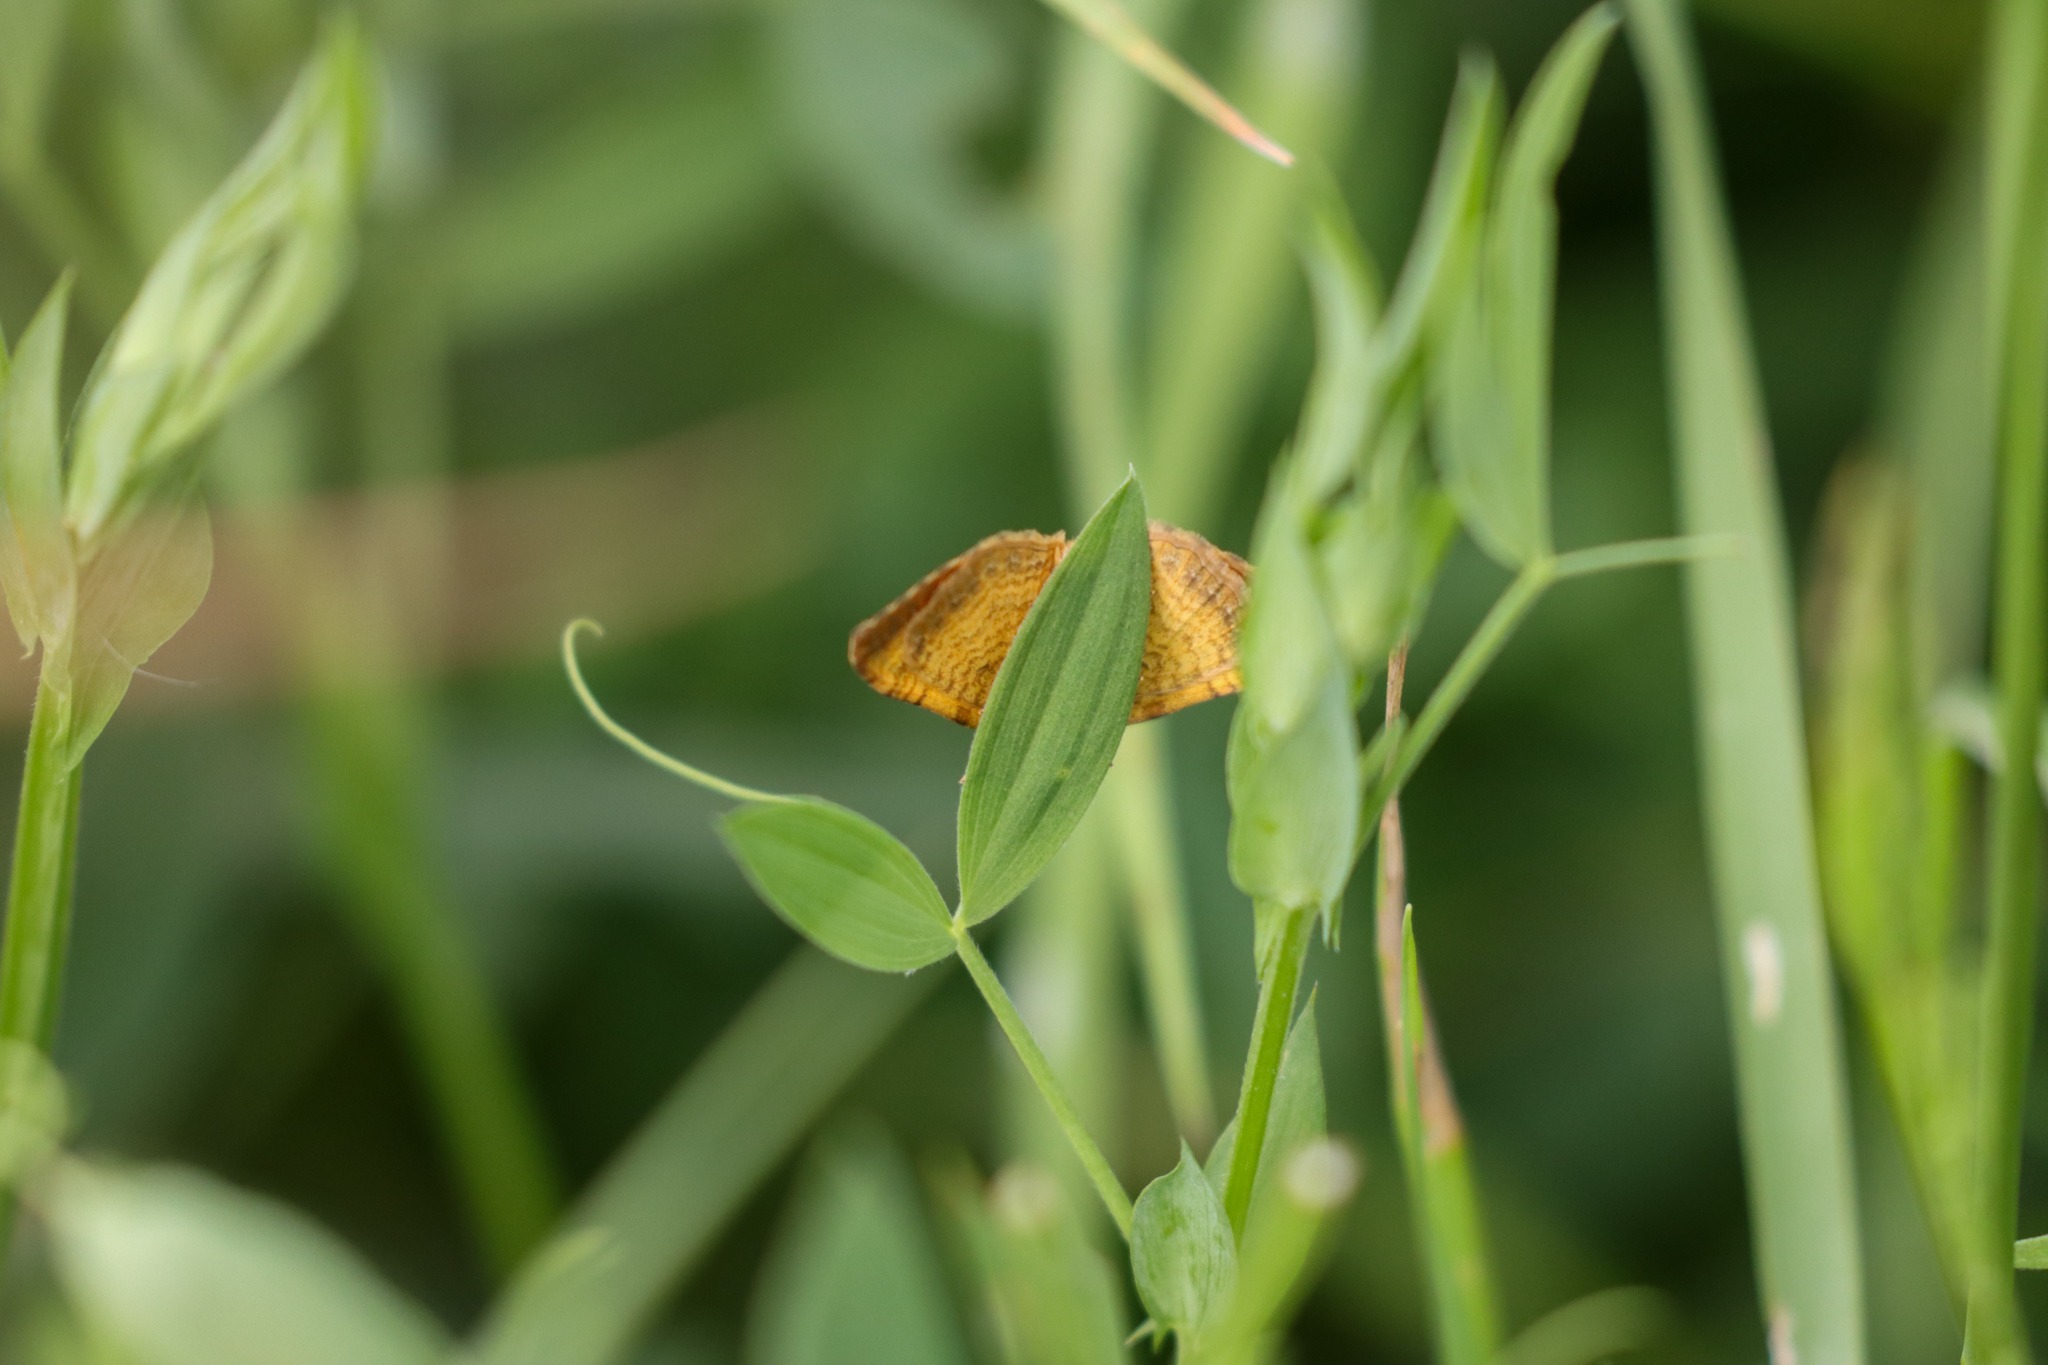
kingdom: Animalia
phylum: Arthropoda
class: Insecta
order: Lepidoptera
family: Geometridae
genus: Camptogramma
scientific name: Camptogramma bilineata
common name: Okkergul bladmåler
